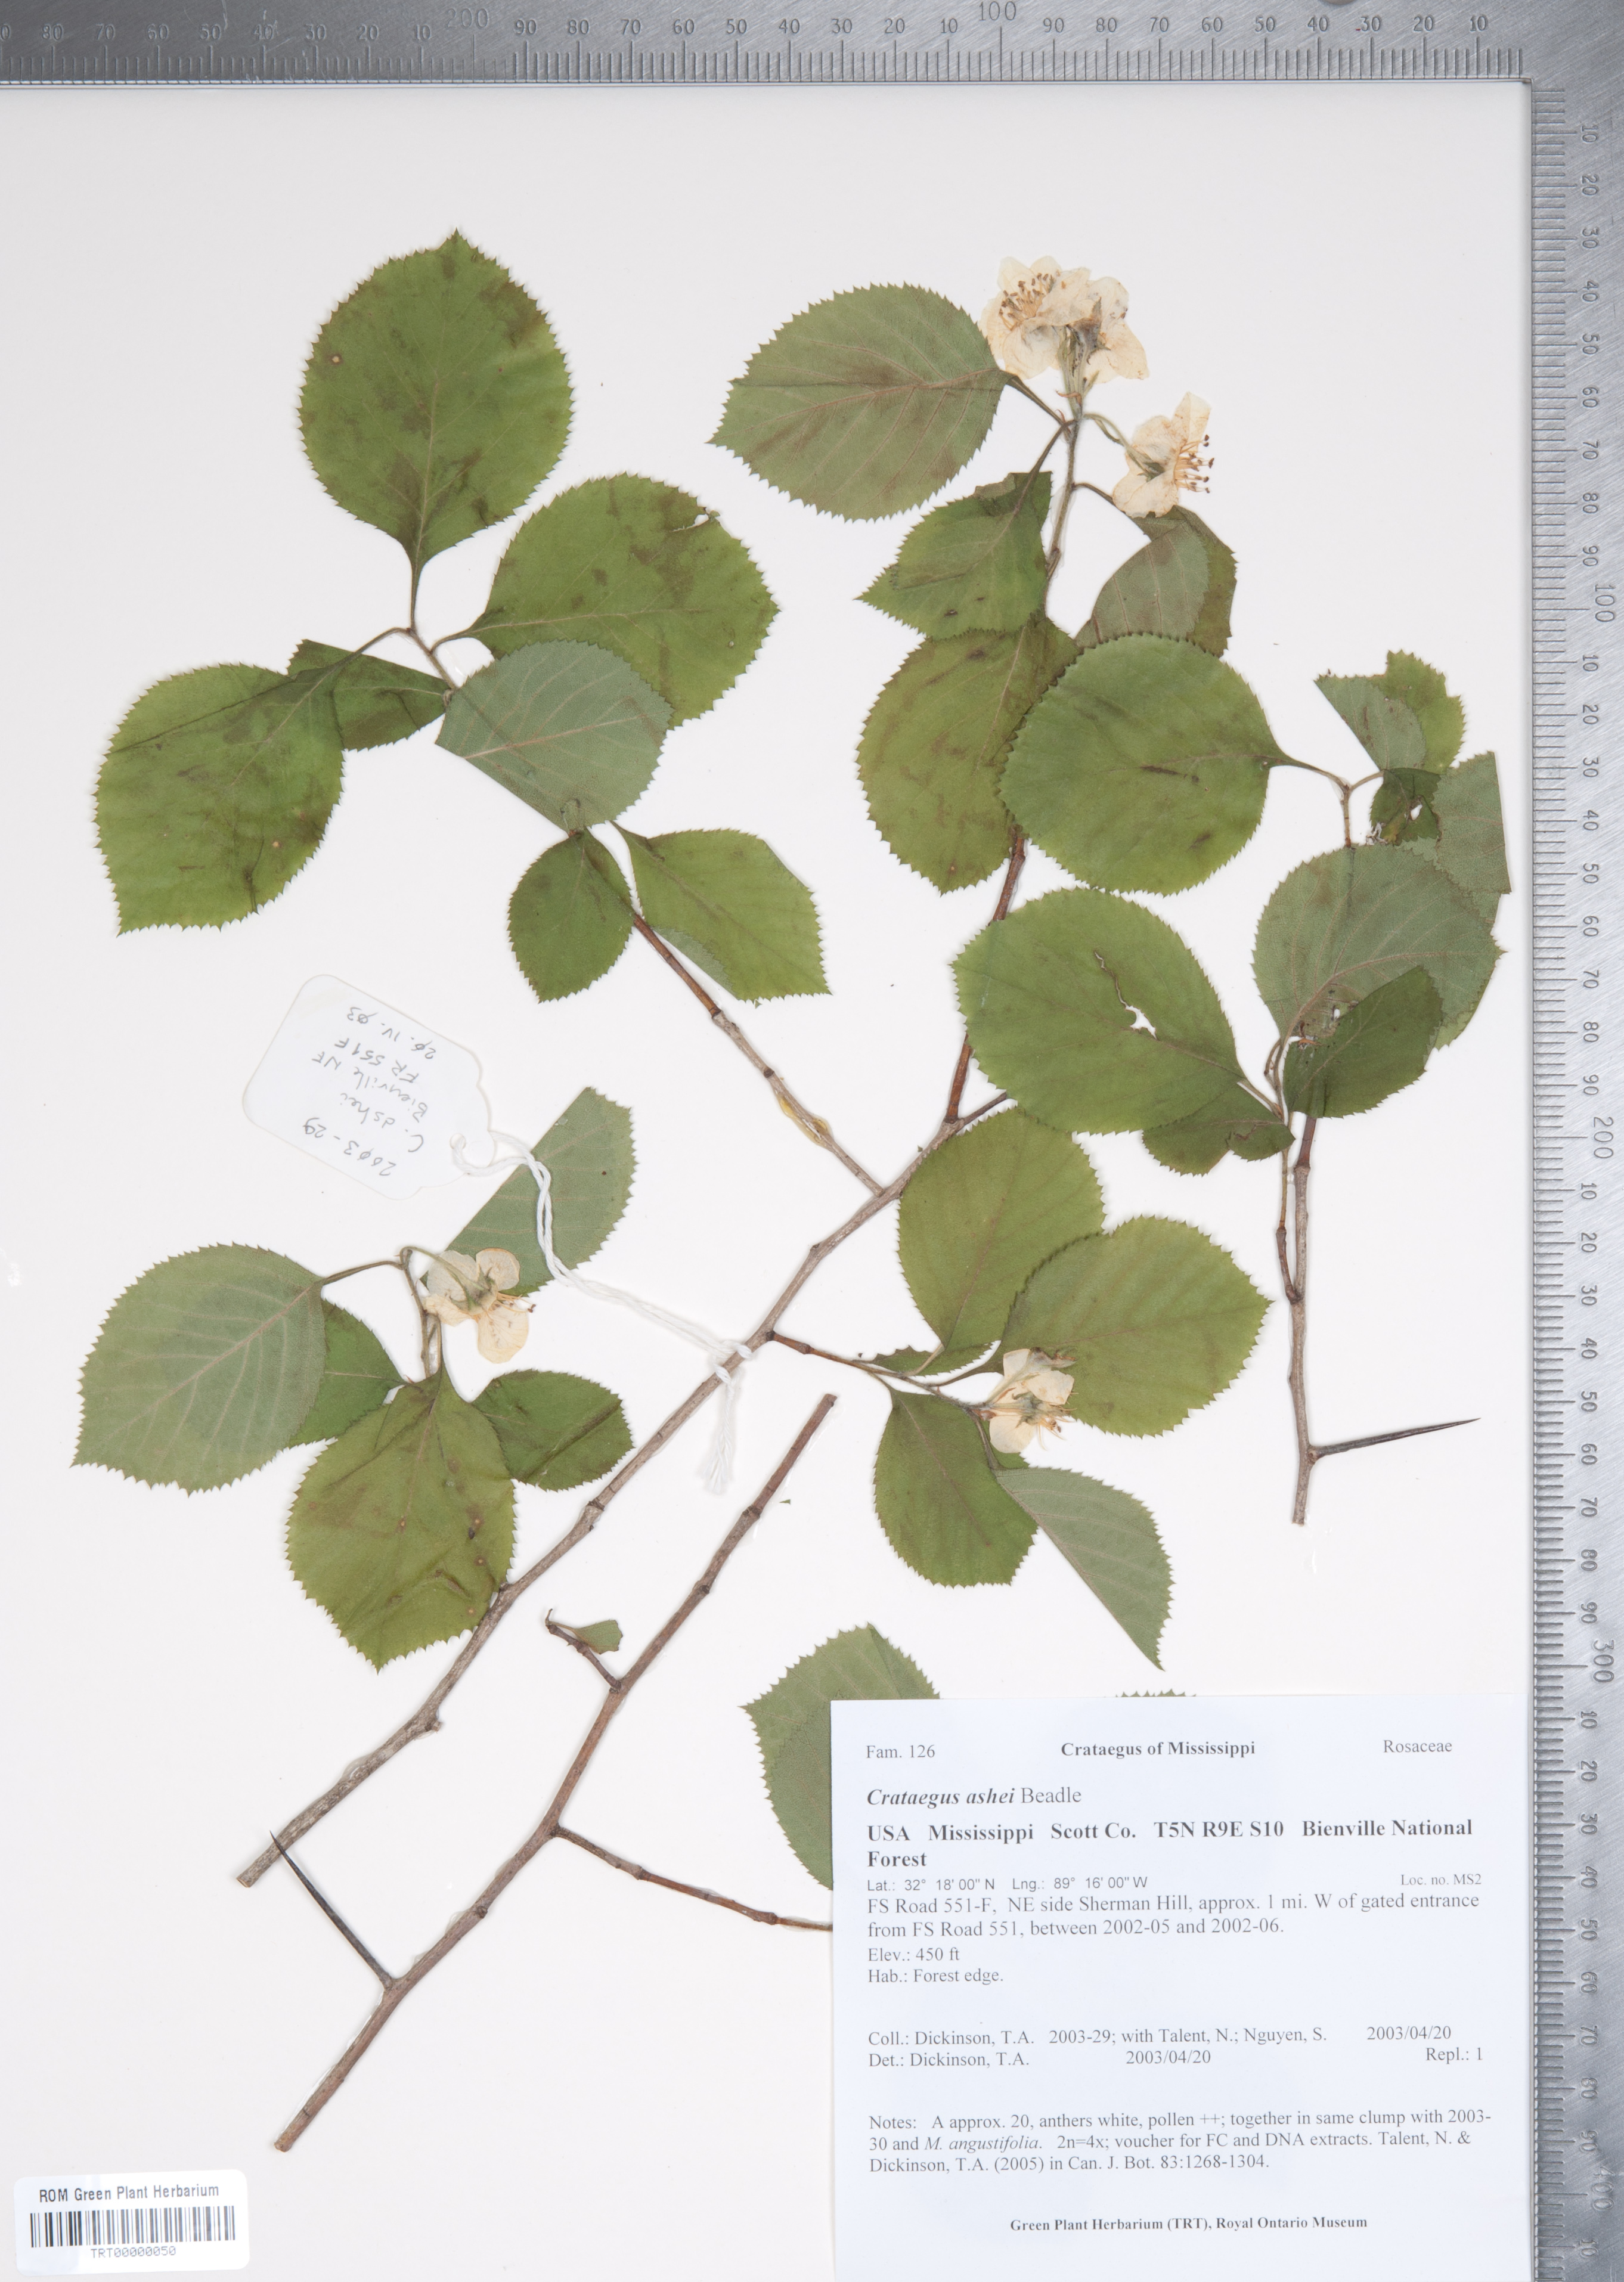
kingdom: Plantae
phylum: Tracheophyta
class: Magnoliopsida
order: Rosales
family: Rosaceae
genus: Crataegus
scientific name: Crataegus ashei
